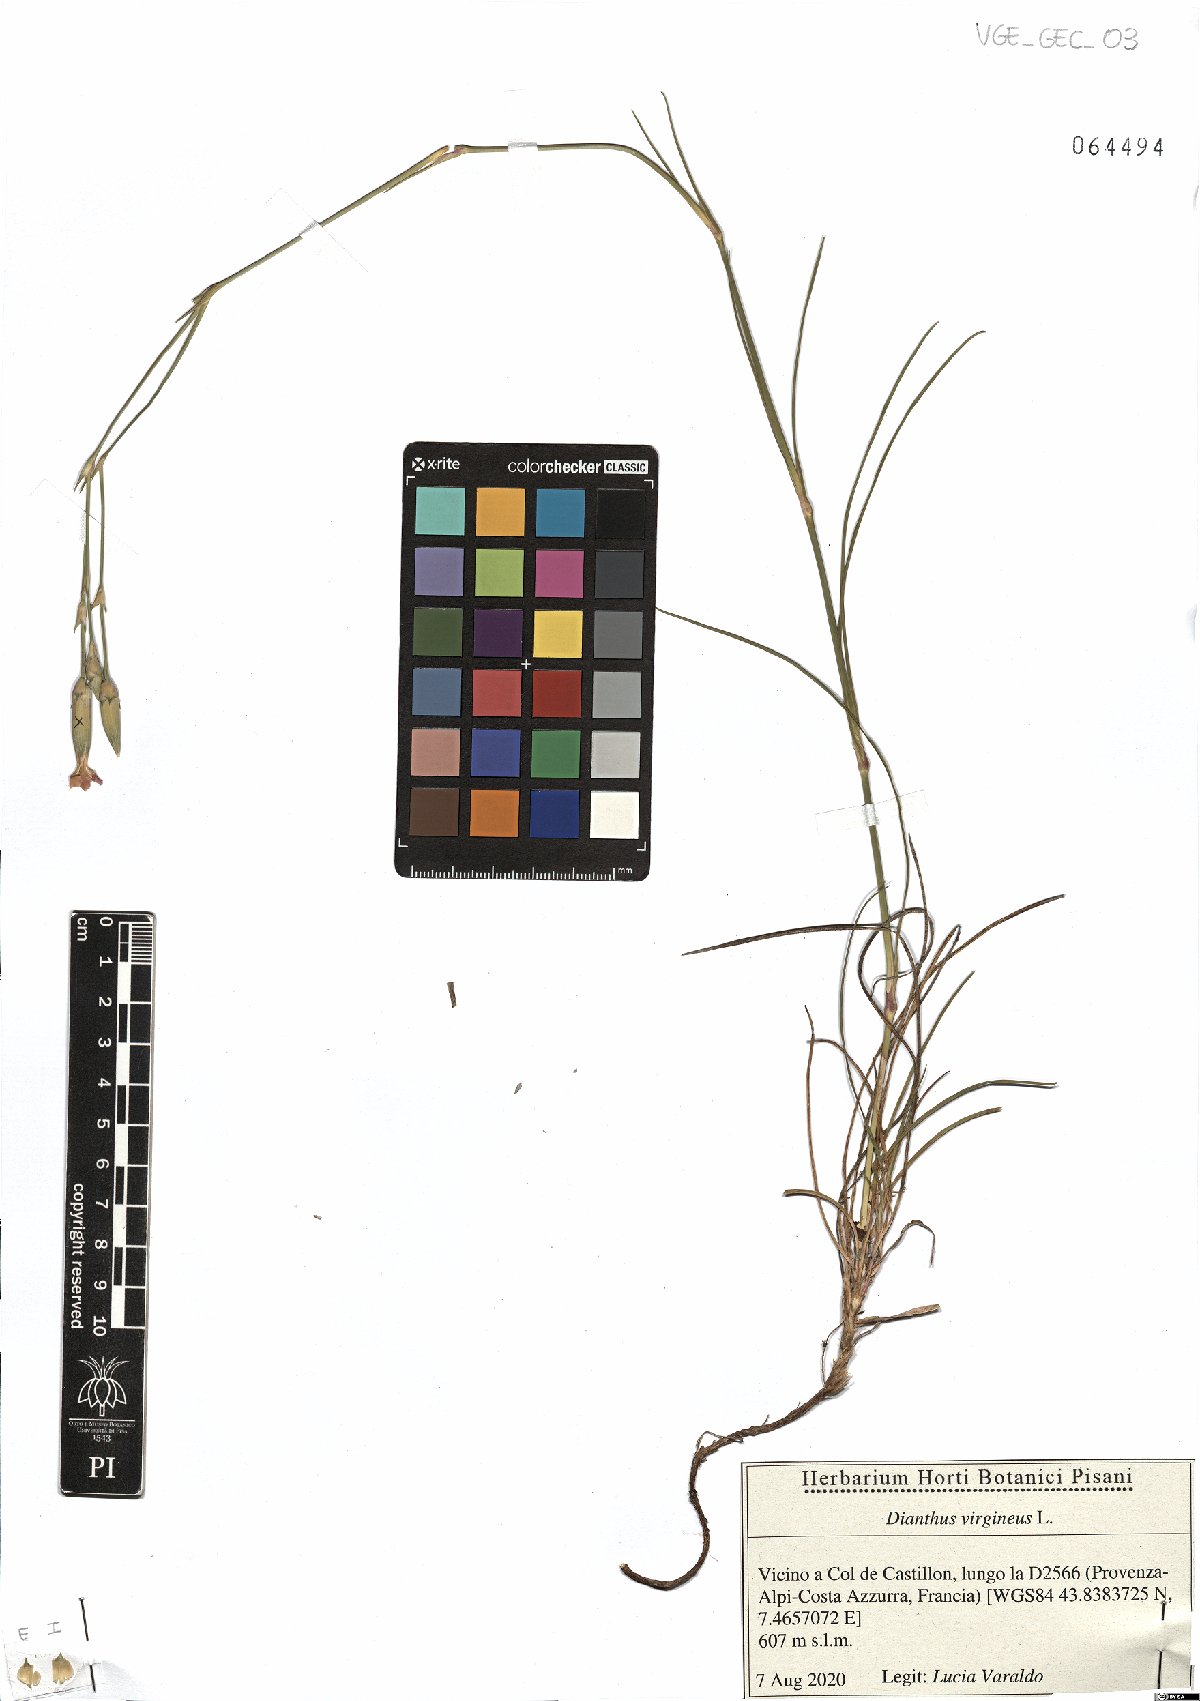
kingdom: Plantae
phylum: Tracheophyta
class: Magnoliopsida
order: Caryophyllales
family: Caryophyllaceae
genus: Dianthus
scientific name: Dianthus virgineus
